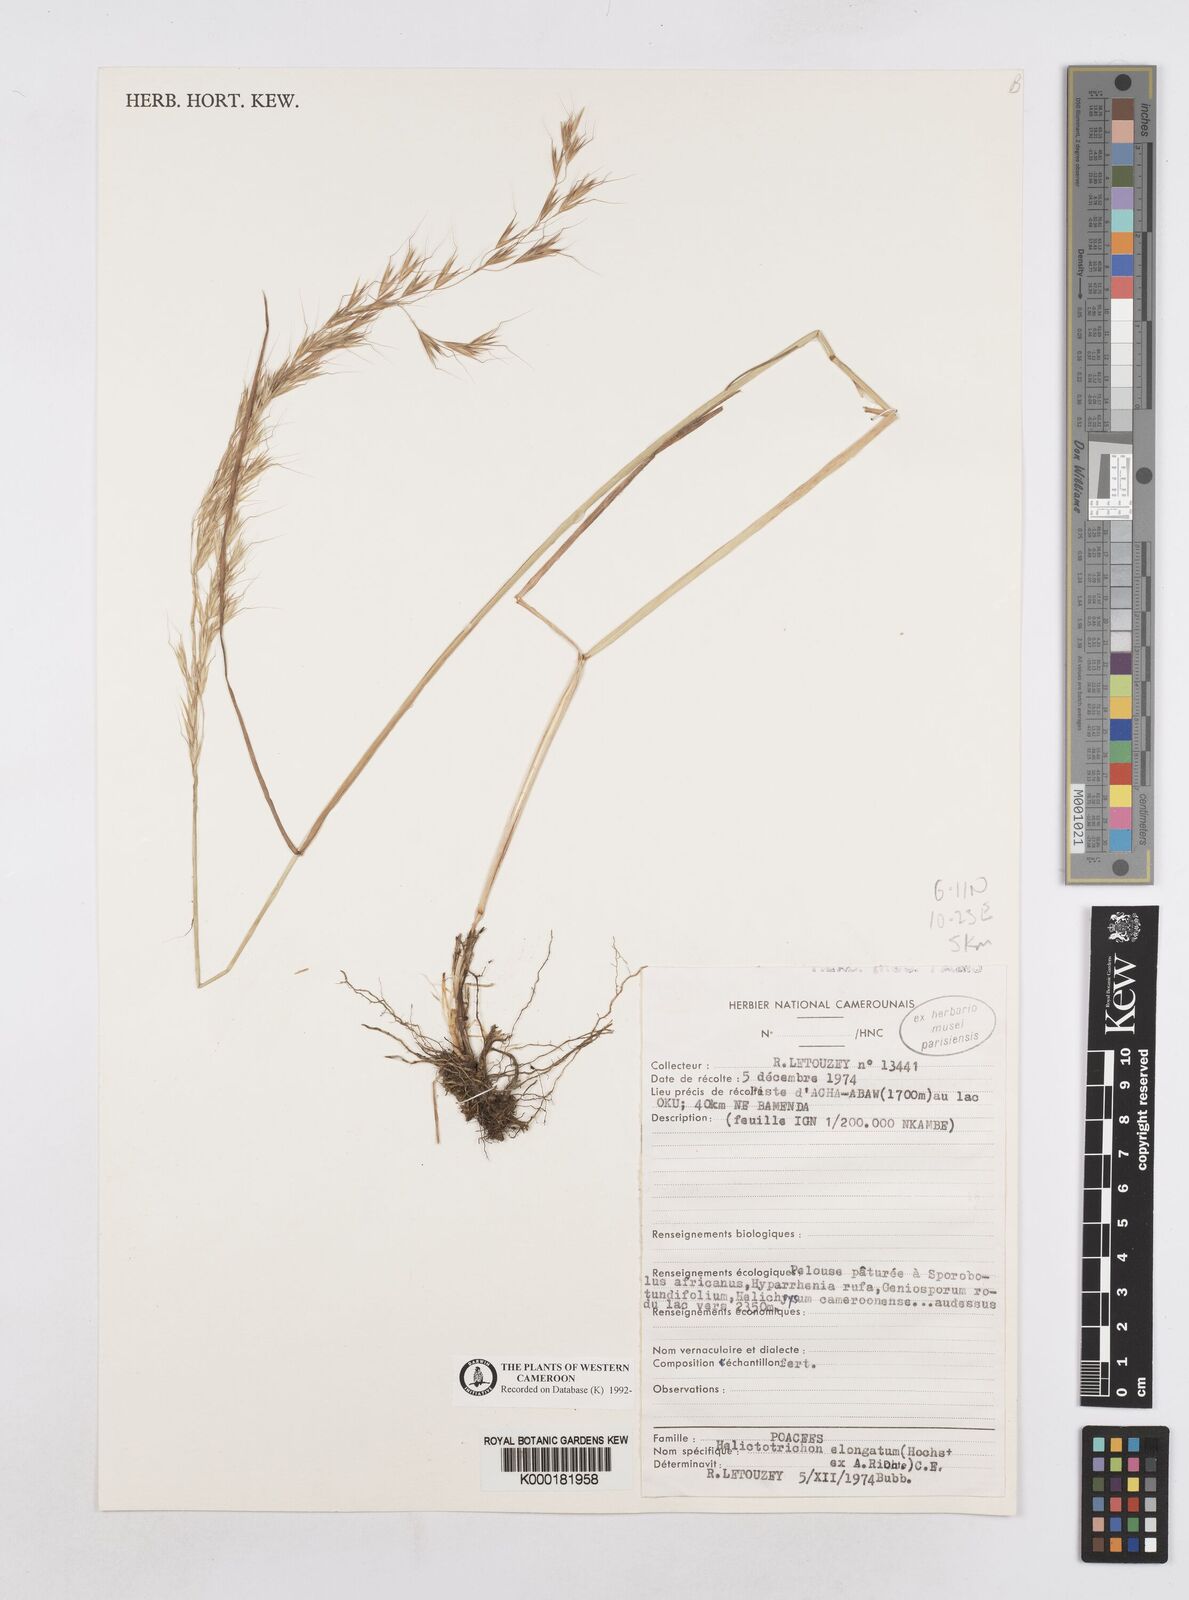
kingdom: Plantae
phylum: Tracheophyta
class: Liliopsida
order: Poales
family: Poaceae
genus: Trisetopsis
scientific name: Trisetopsis elongata
